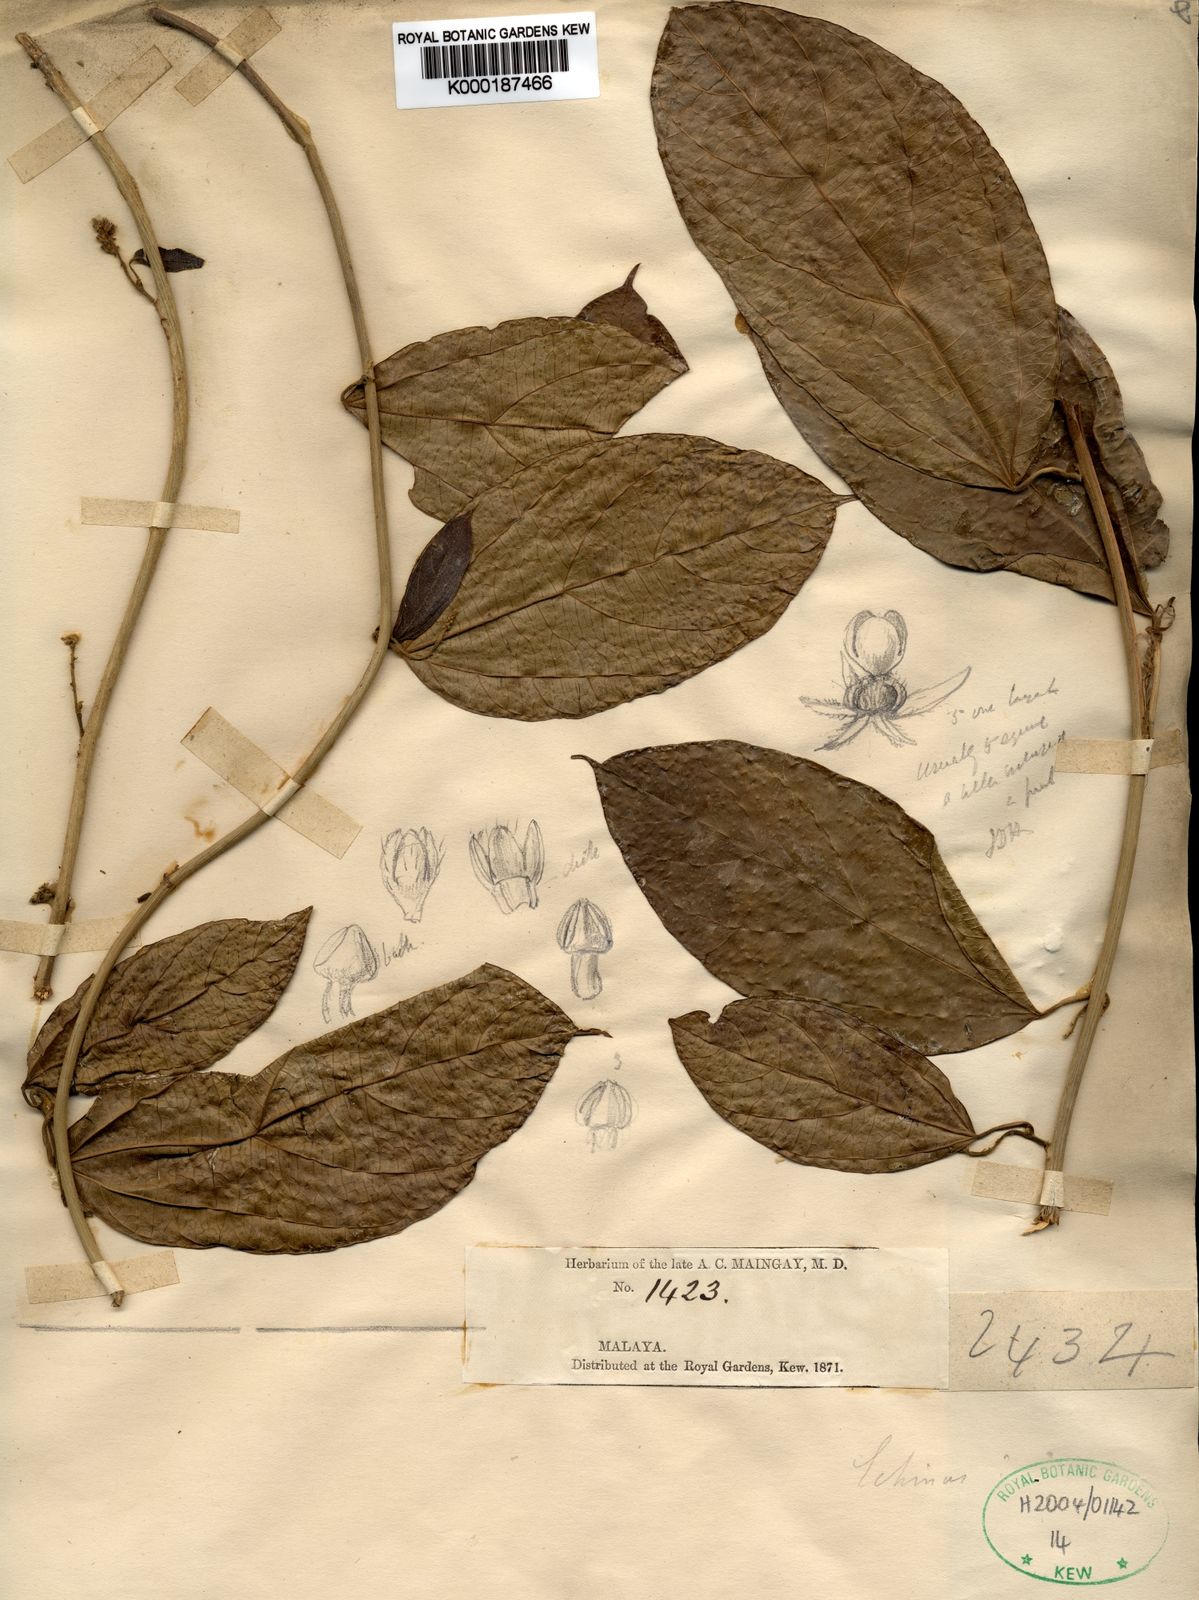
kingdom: Plantae
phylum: Tracheophyta
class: Magnoliopsida
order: Malpighiales
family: Euphorbiaceae
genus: Megistostigma
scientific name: Megistostigma glabratum
